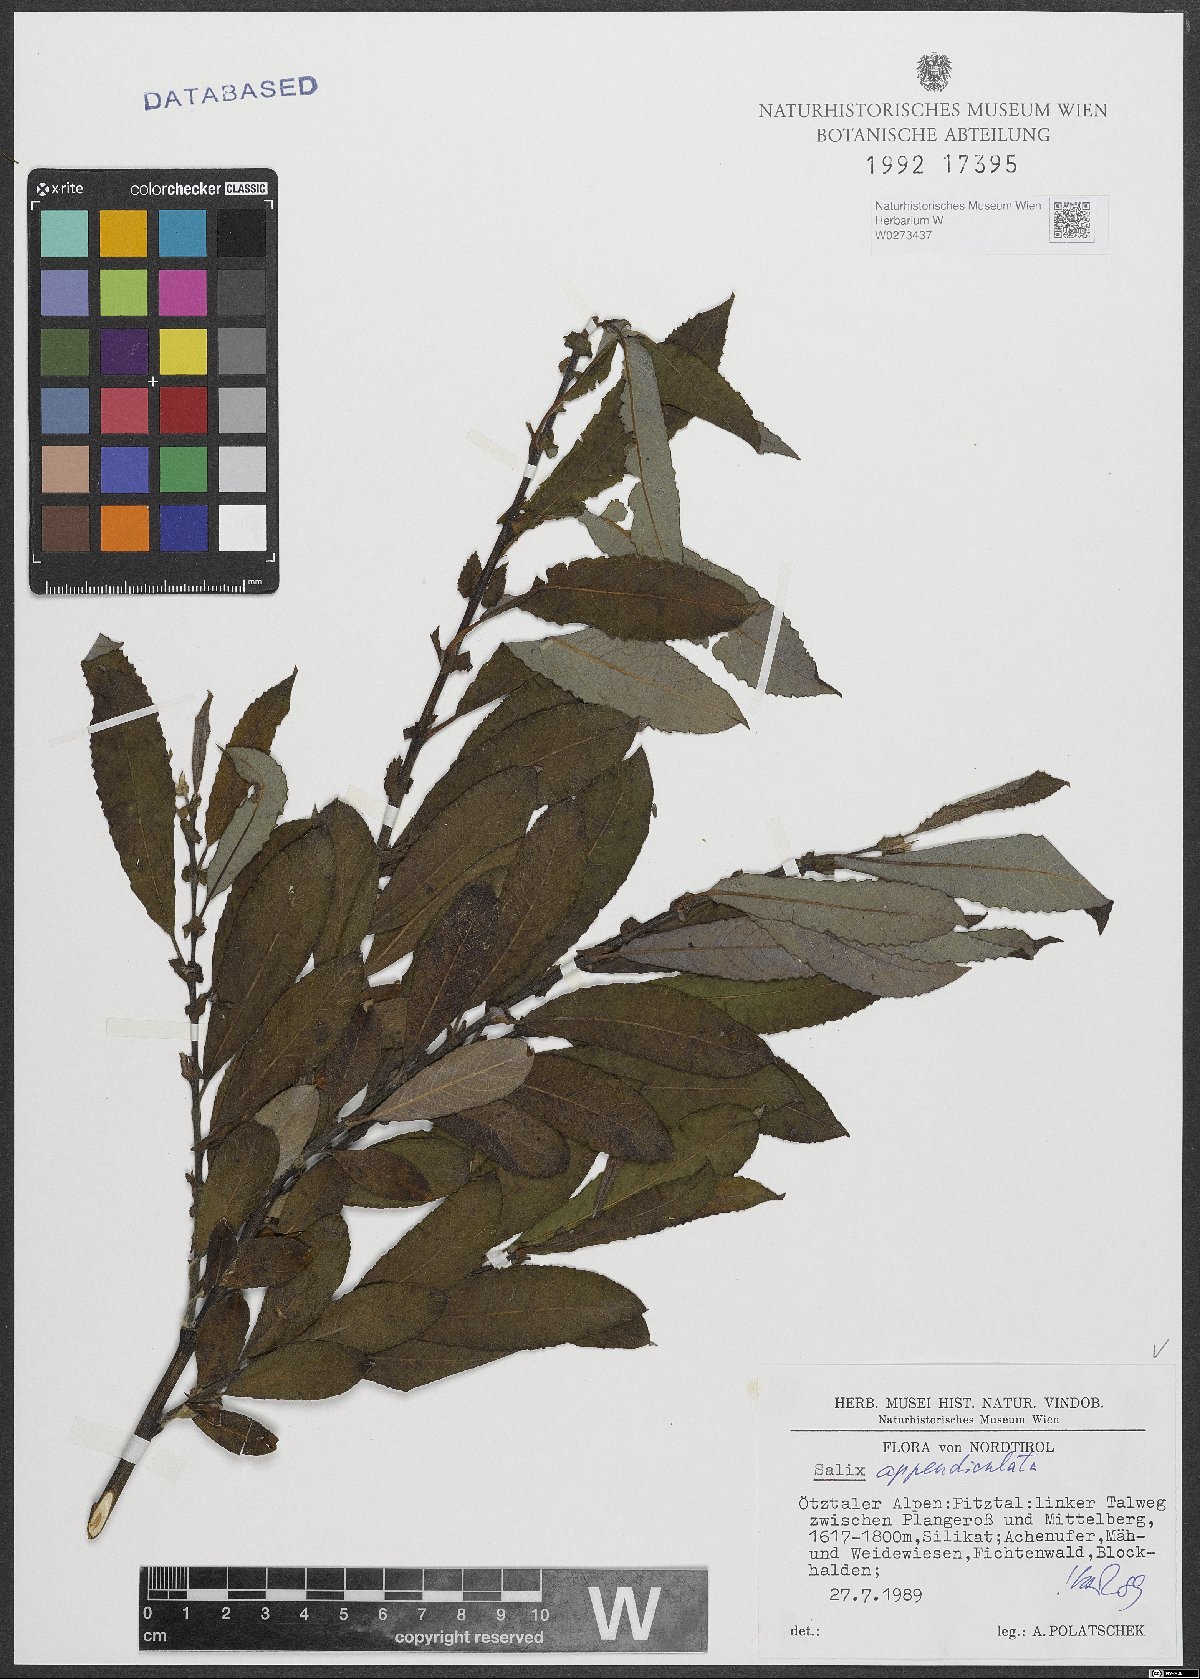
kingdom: Plantae
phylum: Tracheophyta
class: Magnoliopsida
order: Malpighiales
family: Salicaceae
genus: Salix
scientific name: Salix appendiculata
